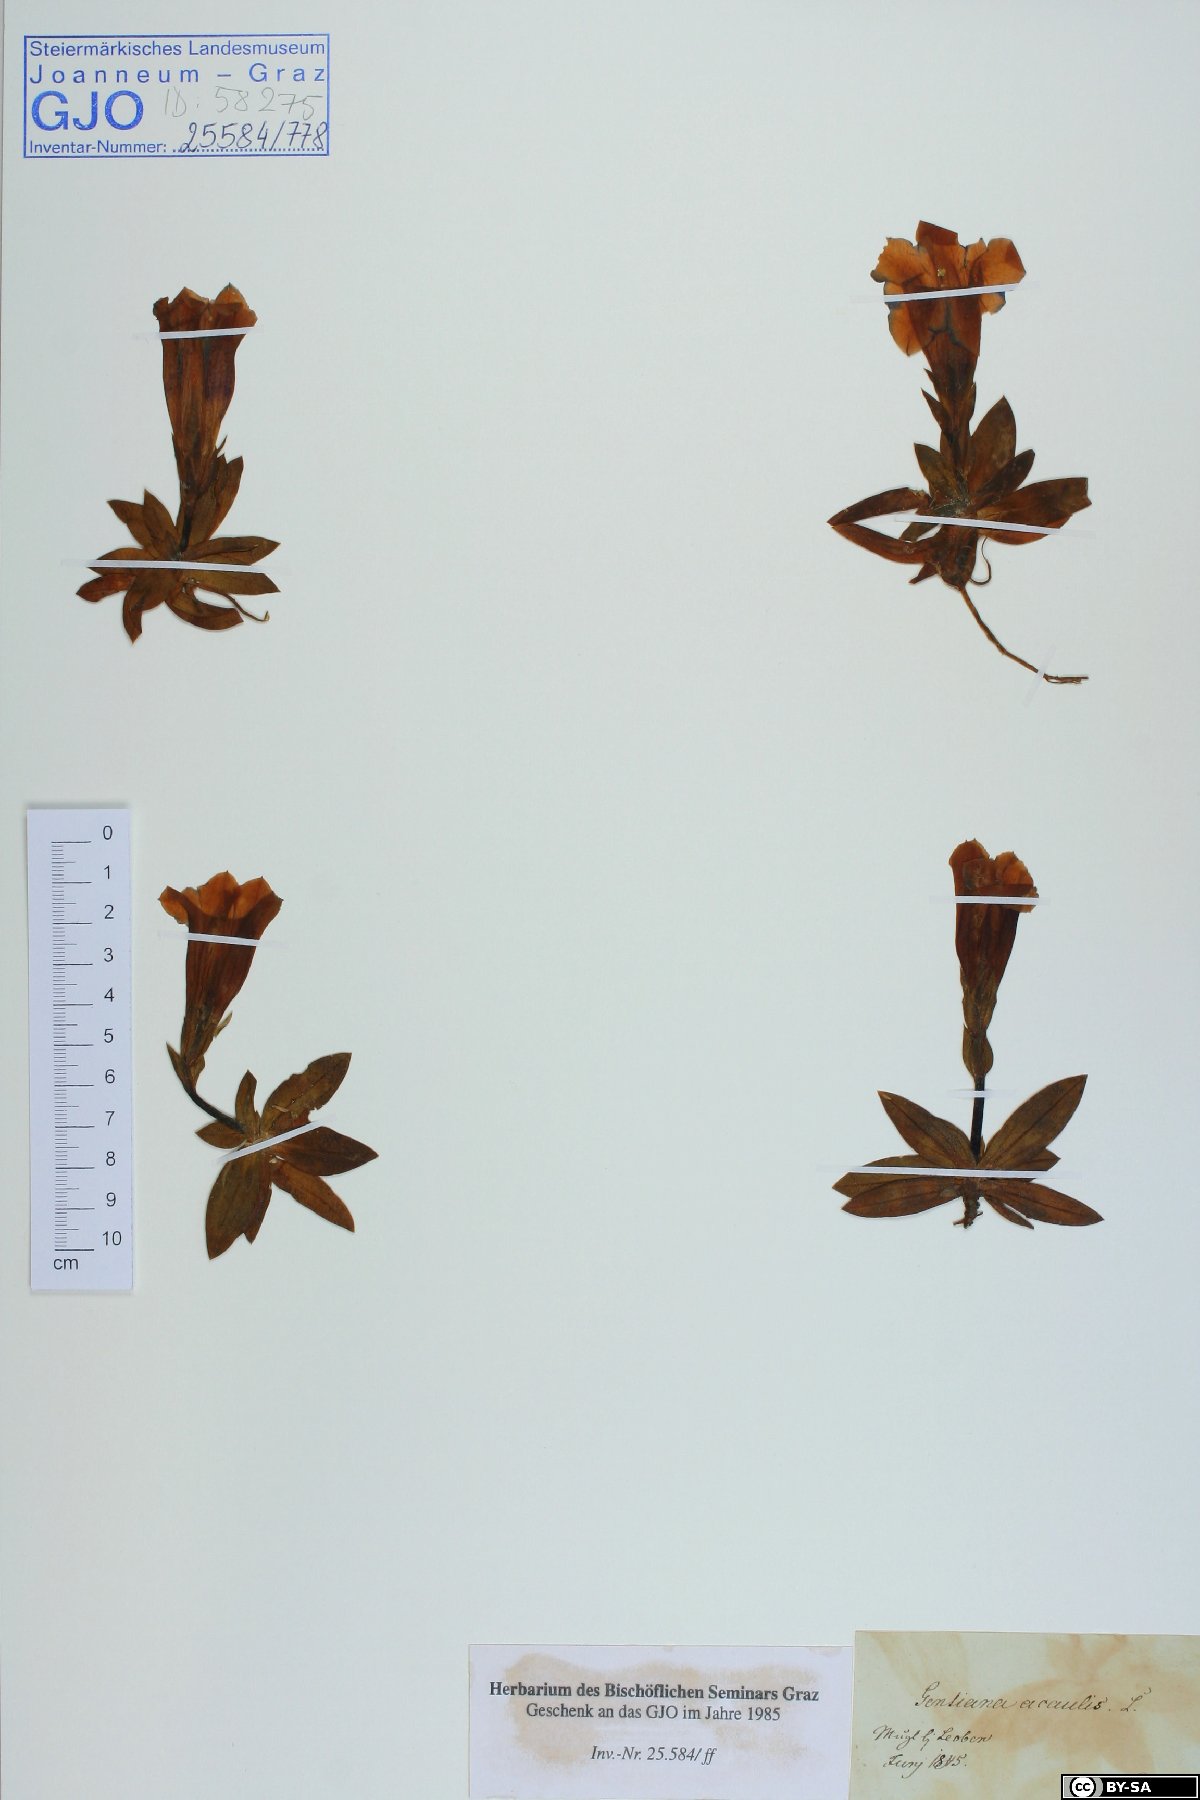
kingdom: Plantae
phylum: Tracheophyta
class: Magnoliopsida
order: Gentianales
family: Gentianaceae
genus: Gentiana
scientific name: Gentiana acaulis
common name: Trumpet gentian
